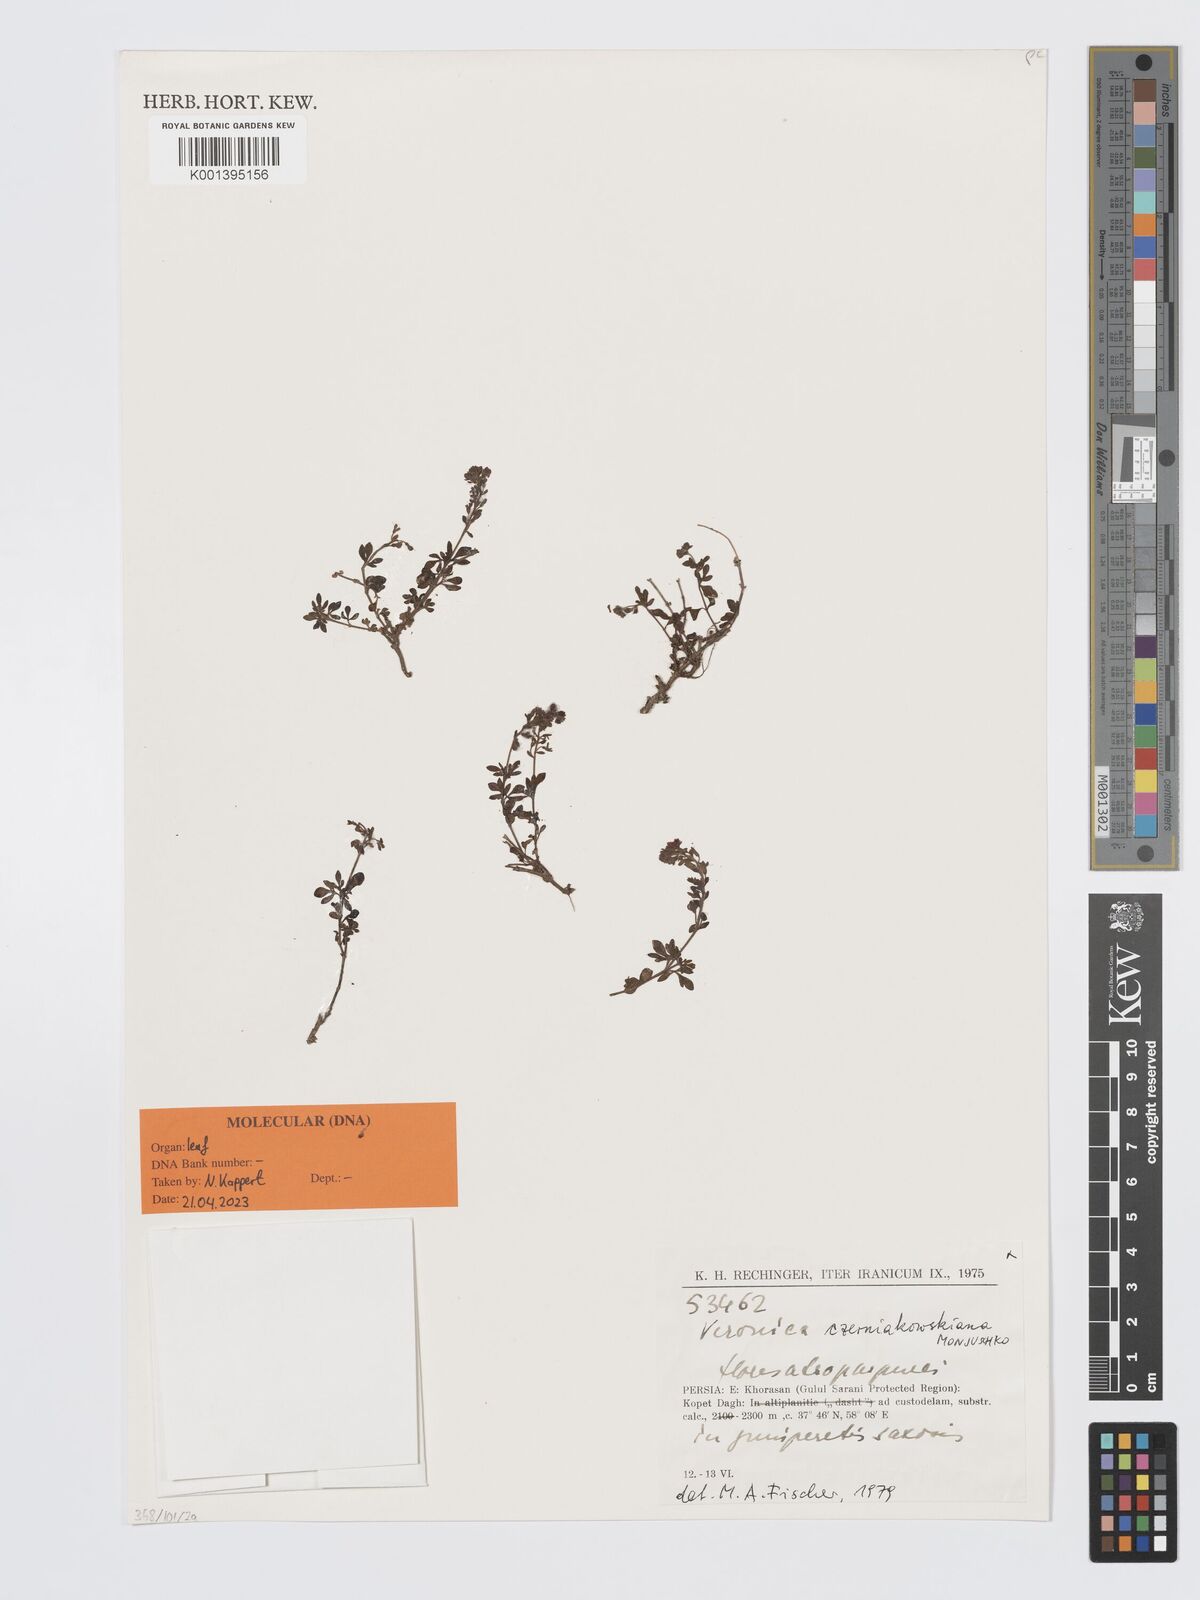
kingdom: Plantae
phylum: Tracheophyta
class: Magnoliopsida
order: Lamiales
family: Plantaginaceae
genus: Veronica
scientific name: Veronica czerniakowskiana
